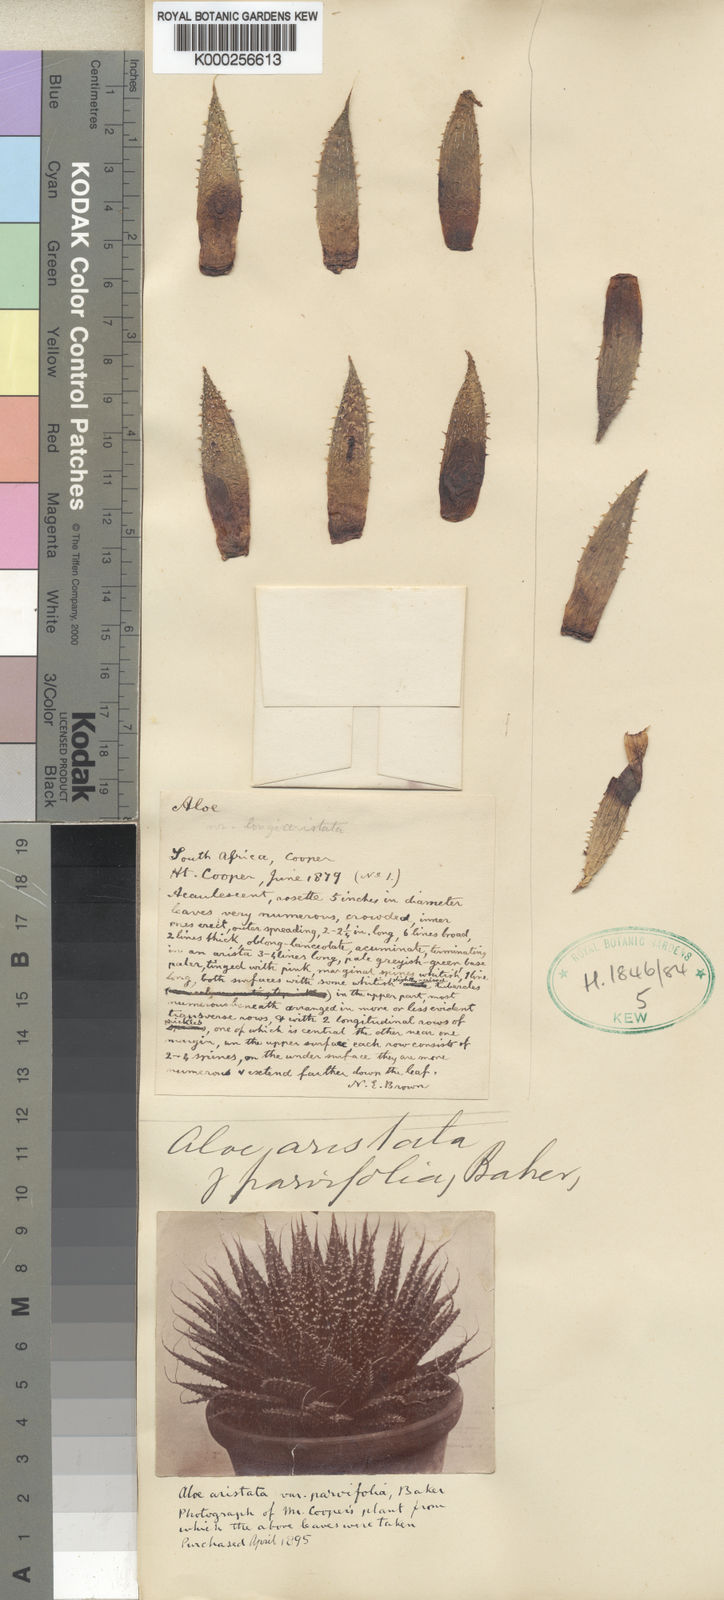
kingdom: Plantae
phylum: Tracheophyta
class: Liliopsida
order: Asparagales
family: Asphodelaceae
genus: Aristaloe
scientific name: Aristaloe aristata
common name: Guinea-fowl aloe
